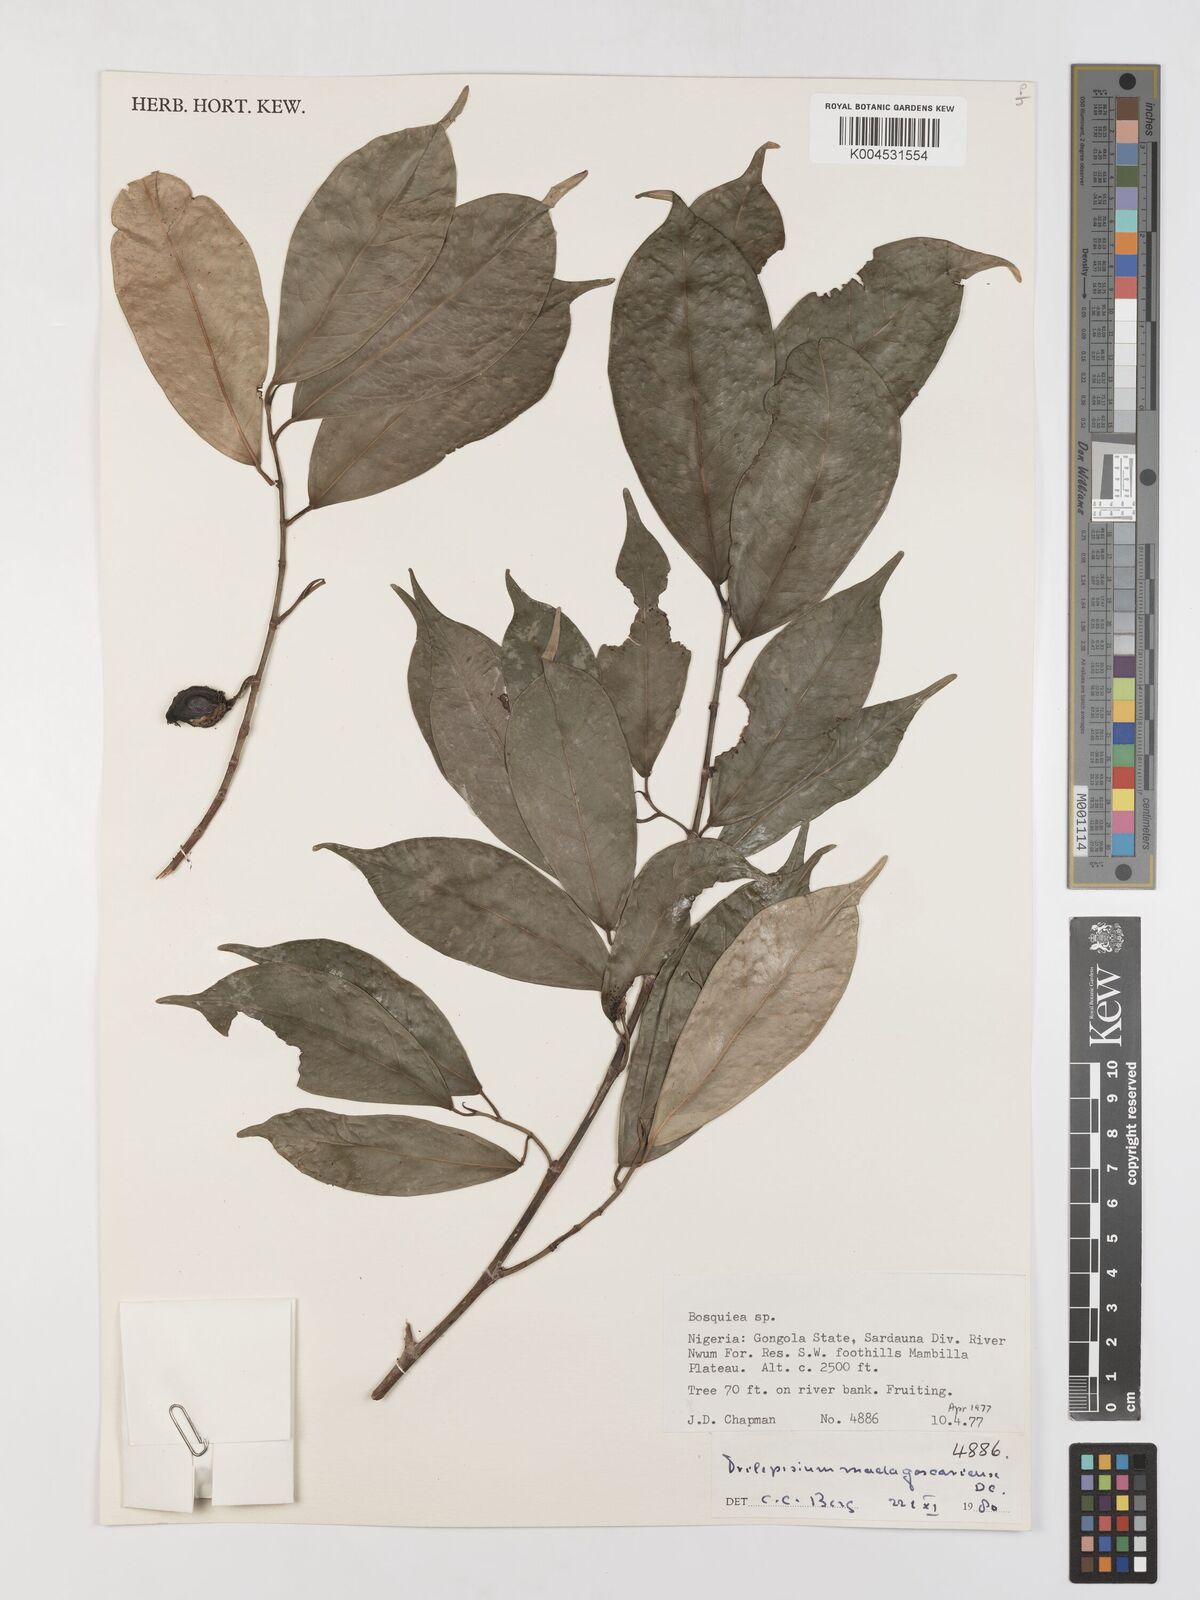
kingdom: Plantae
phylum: Tracheophyta
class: Magnoliopsida
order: Rosales
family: Moraceae
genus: Trilepisium
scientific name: Trilepisium madagascariense
